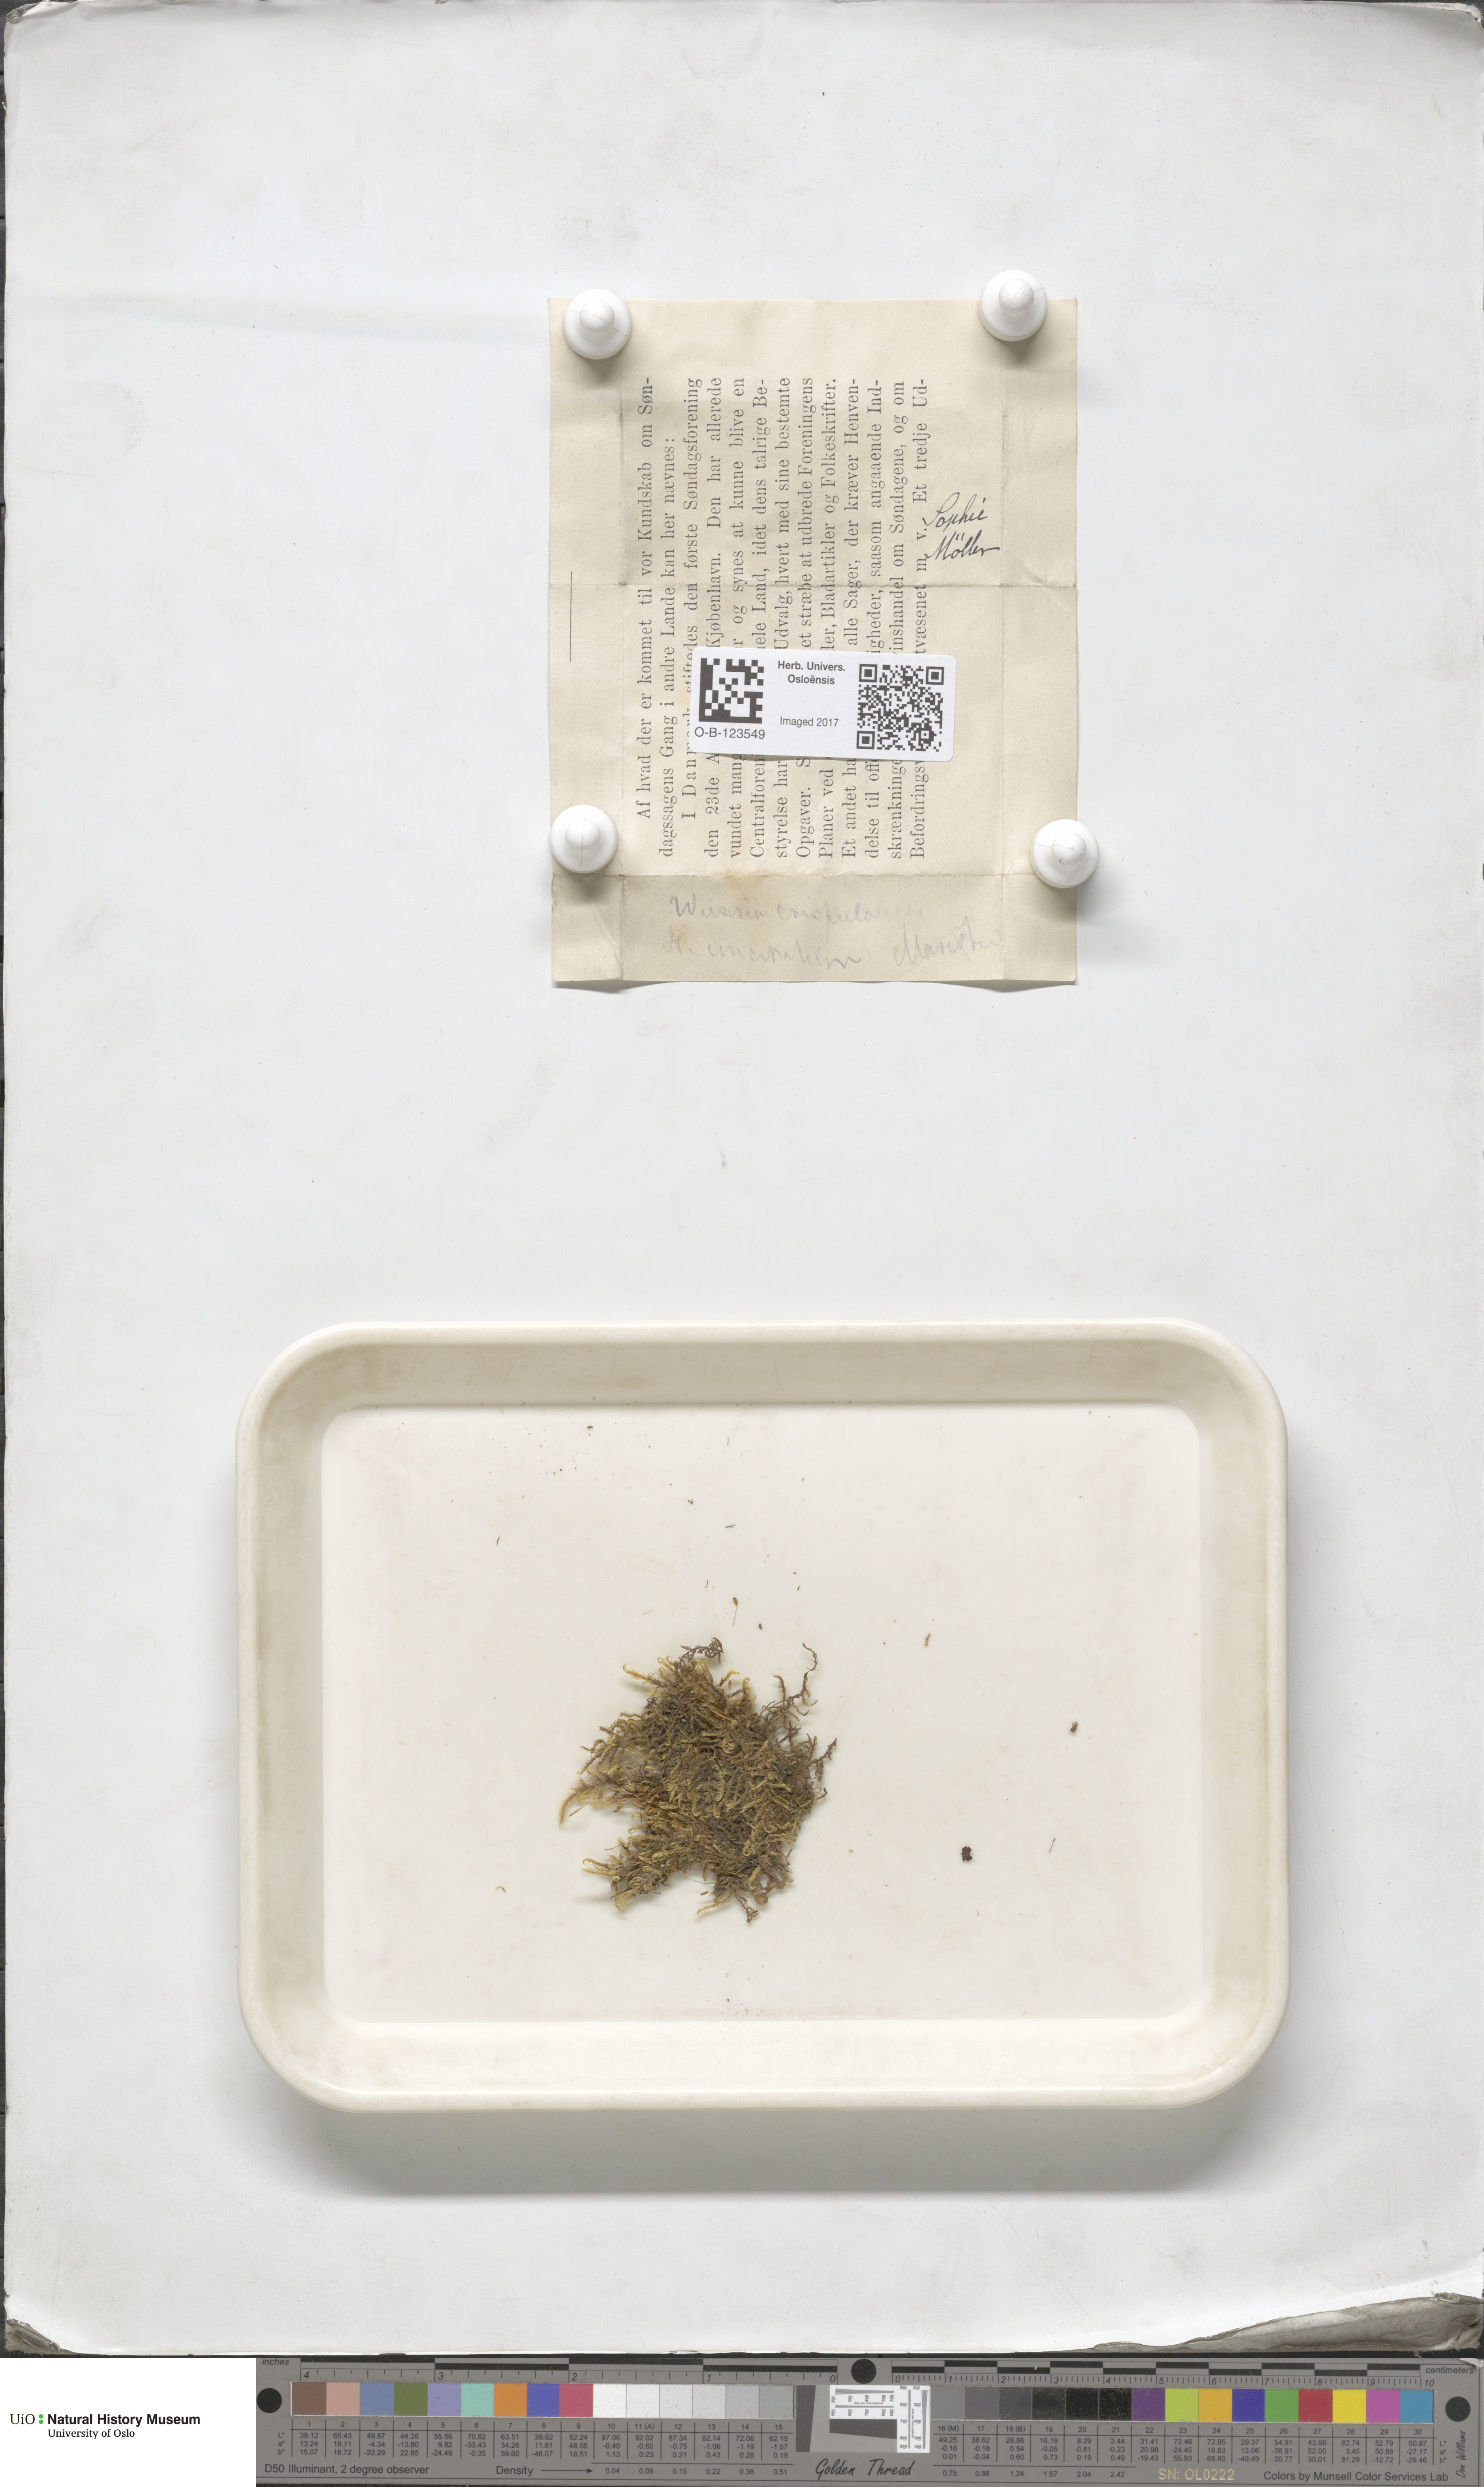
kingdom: Plantae
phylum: Bryophyta
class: Bryopsida
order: Scouleriales
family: Hymenolomataceae
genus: Hymenoloma
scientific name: Hymenoloma crispulum
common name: Mountain pincushion
